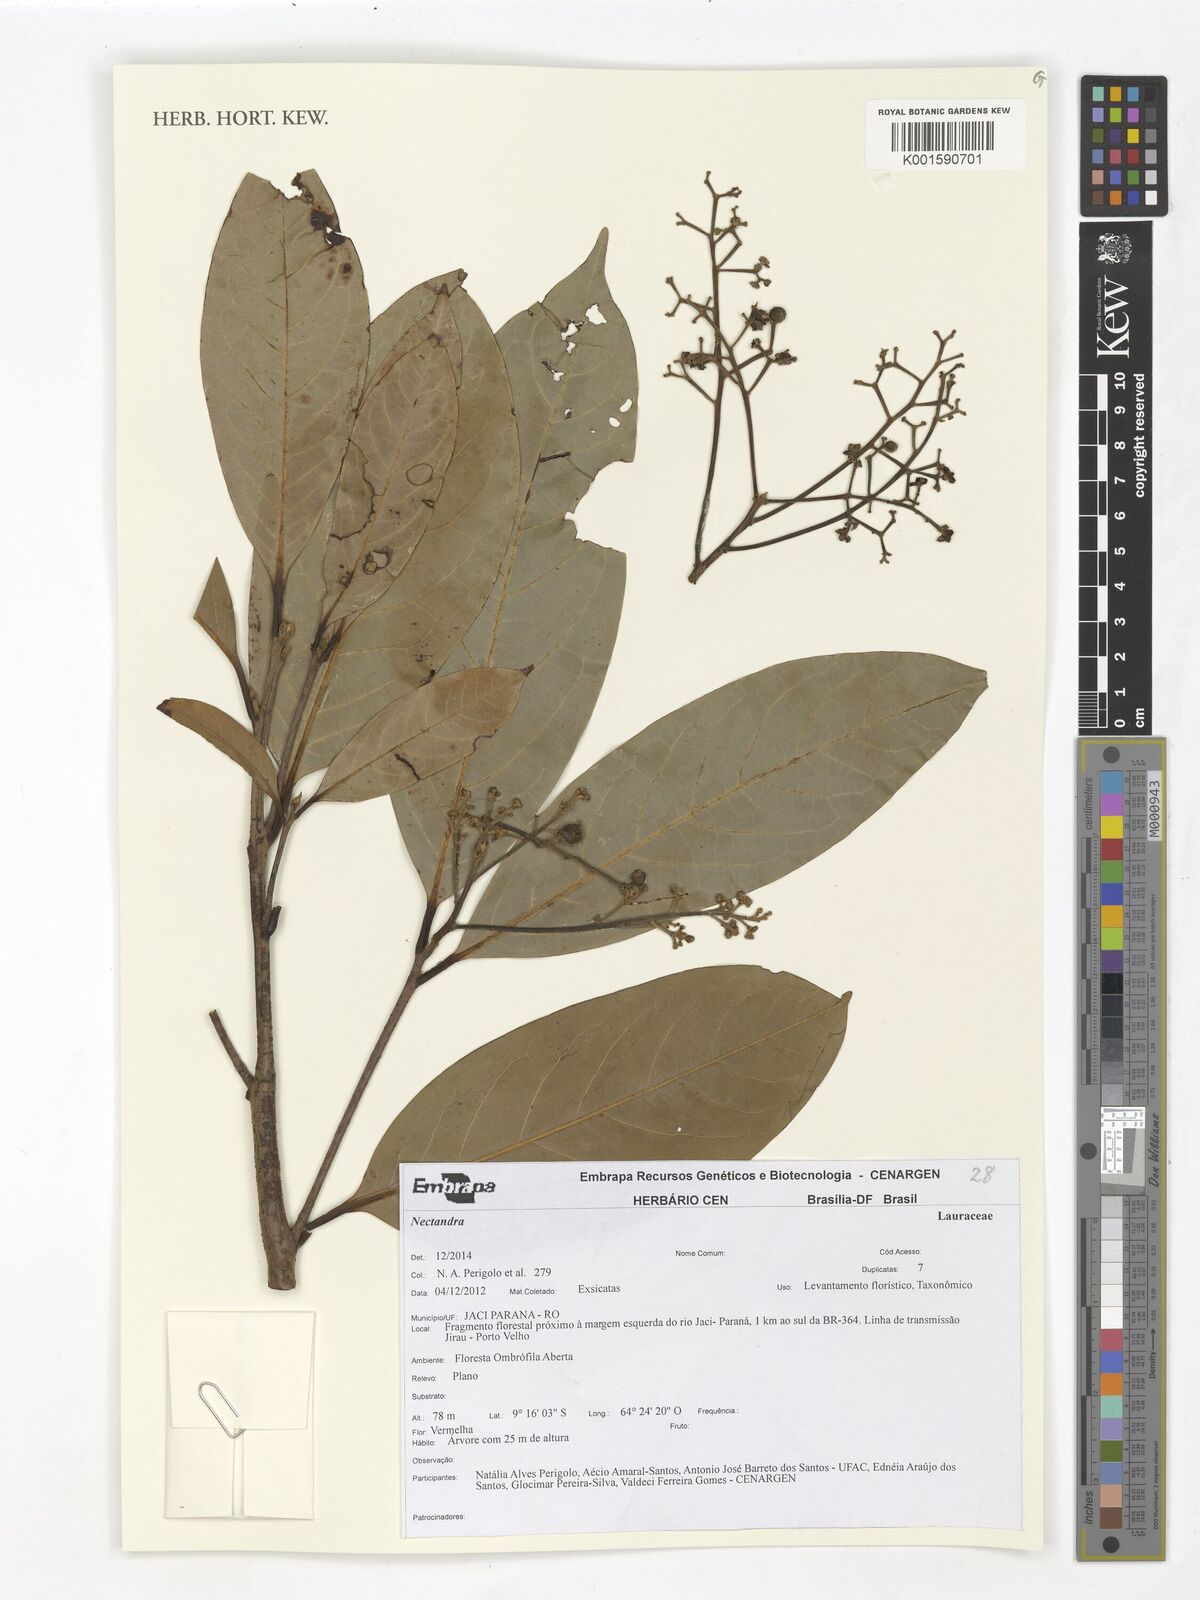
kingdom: Plantae
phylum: Tracheophyta
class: Magnoliopsida
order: Laurales
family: Lauraceae
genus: Nectandra
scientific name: Nectandra
